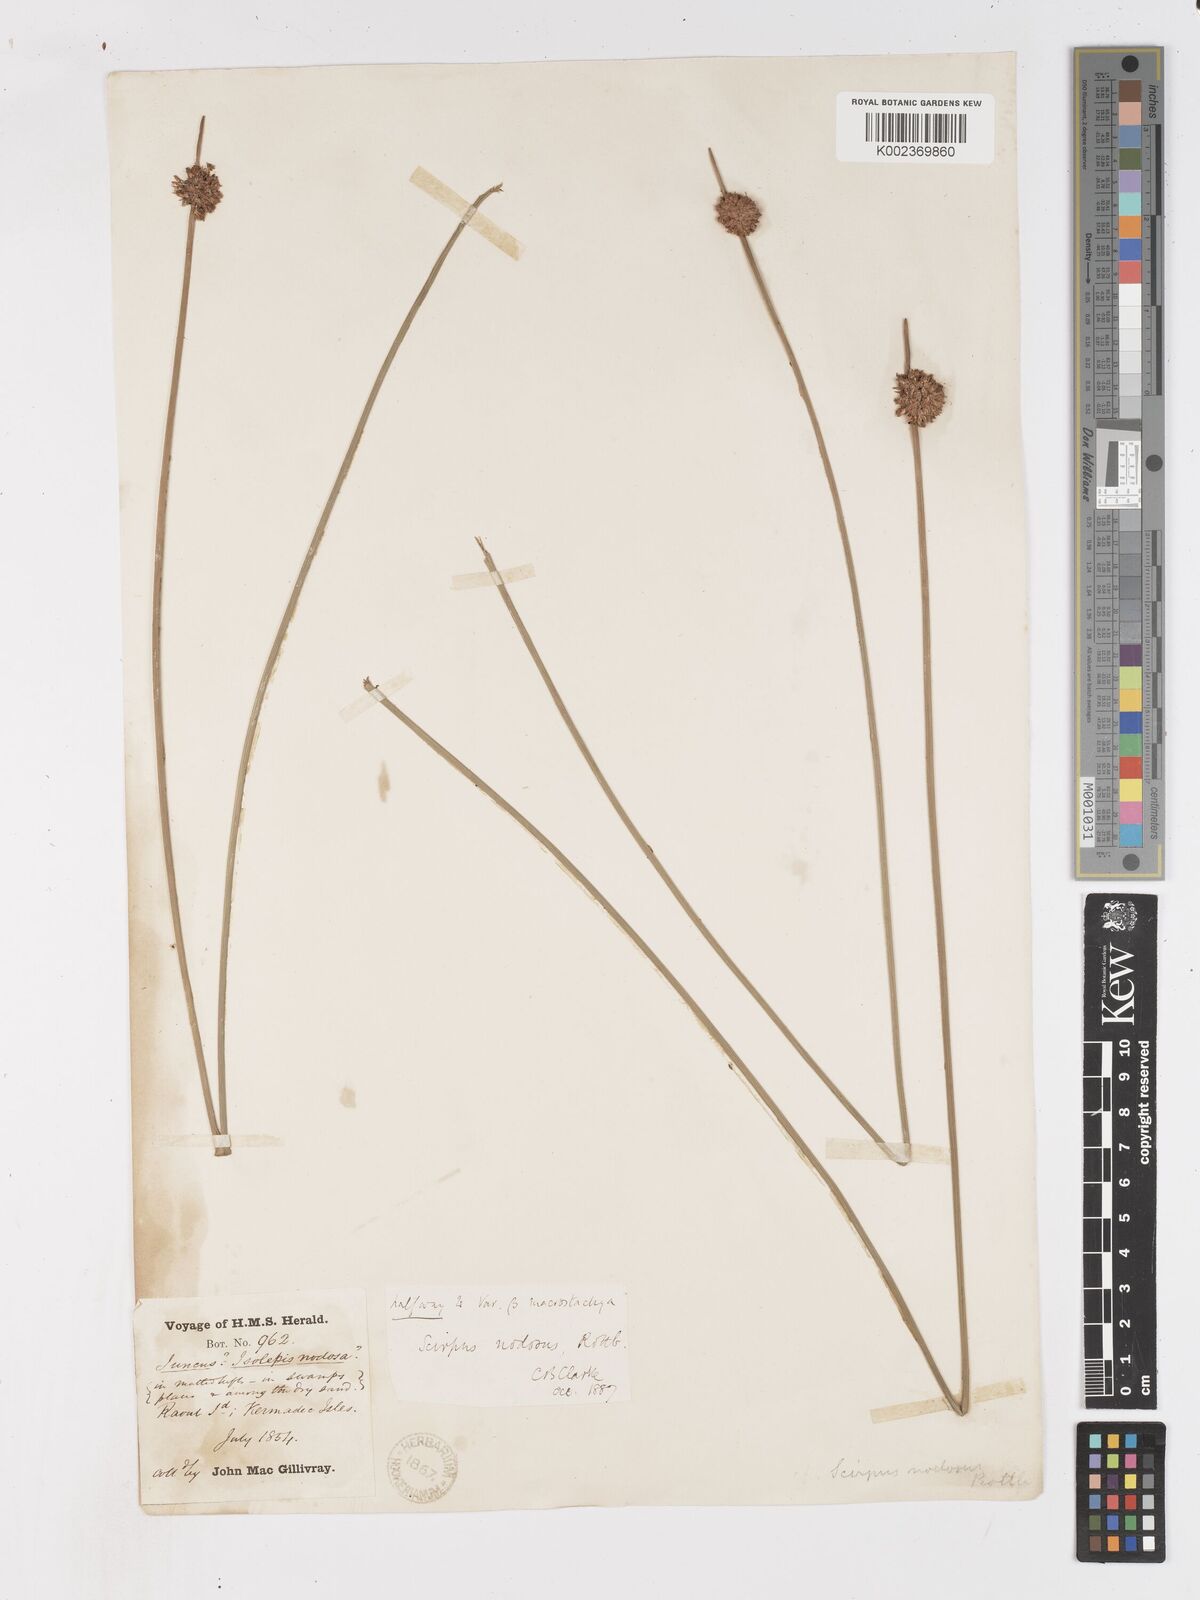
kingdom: Plantae
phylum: Tracheophyta
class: Liliopsida
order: Poales
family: Cyperaceae
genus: Ficinia
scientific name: Ficinia nodosa
